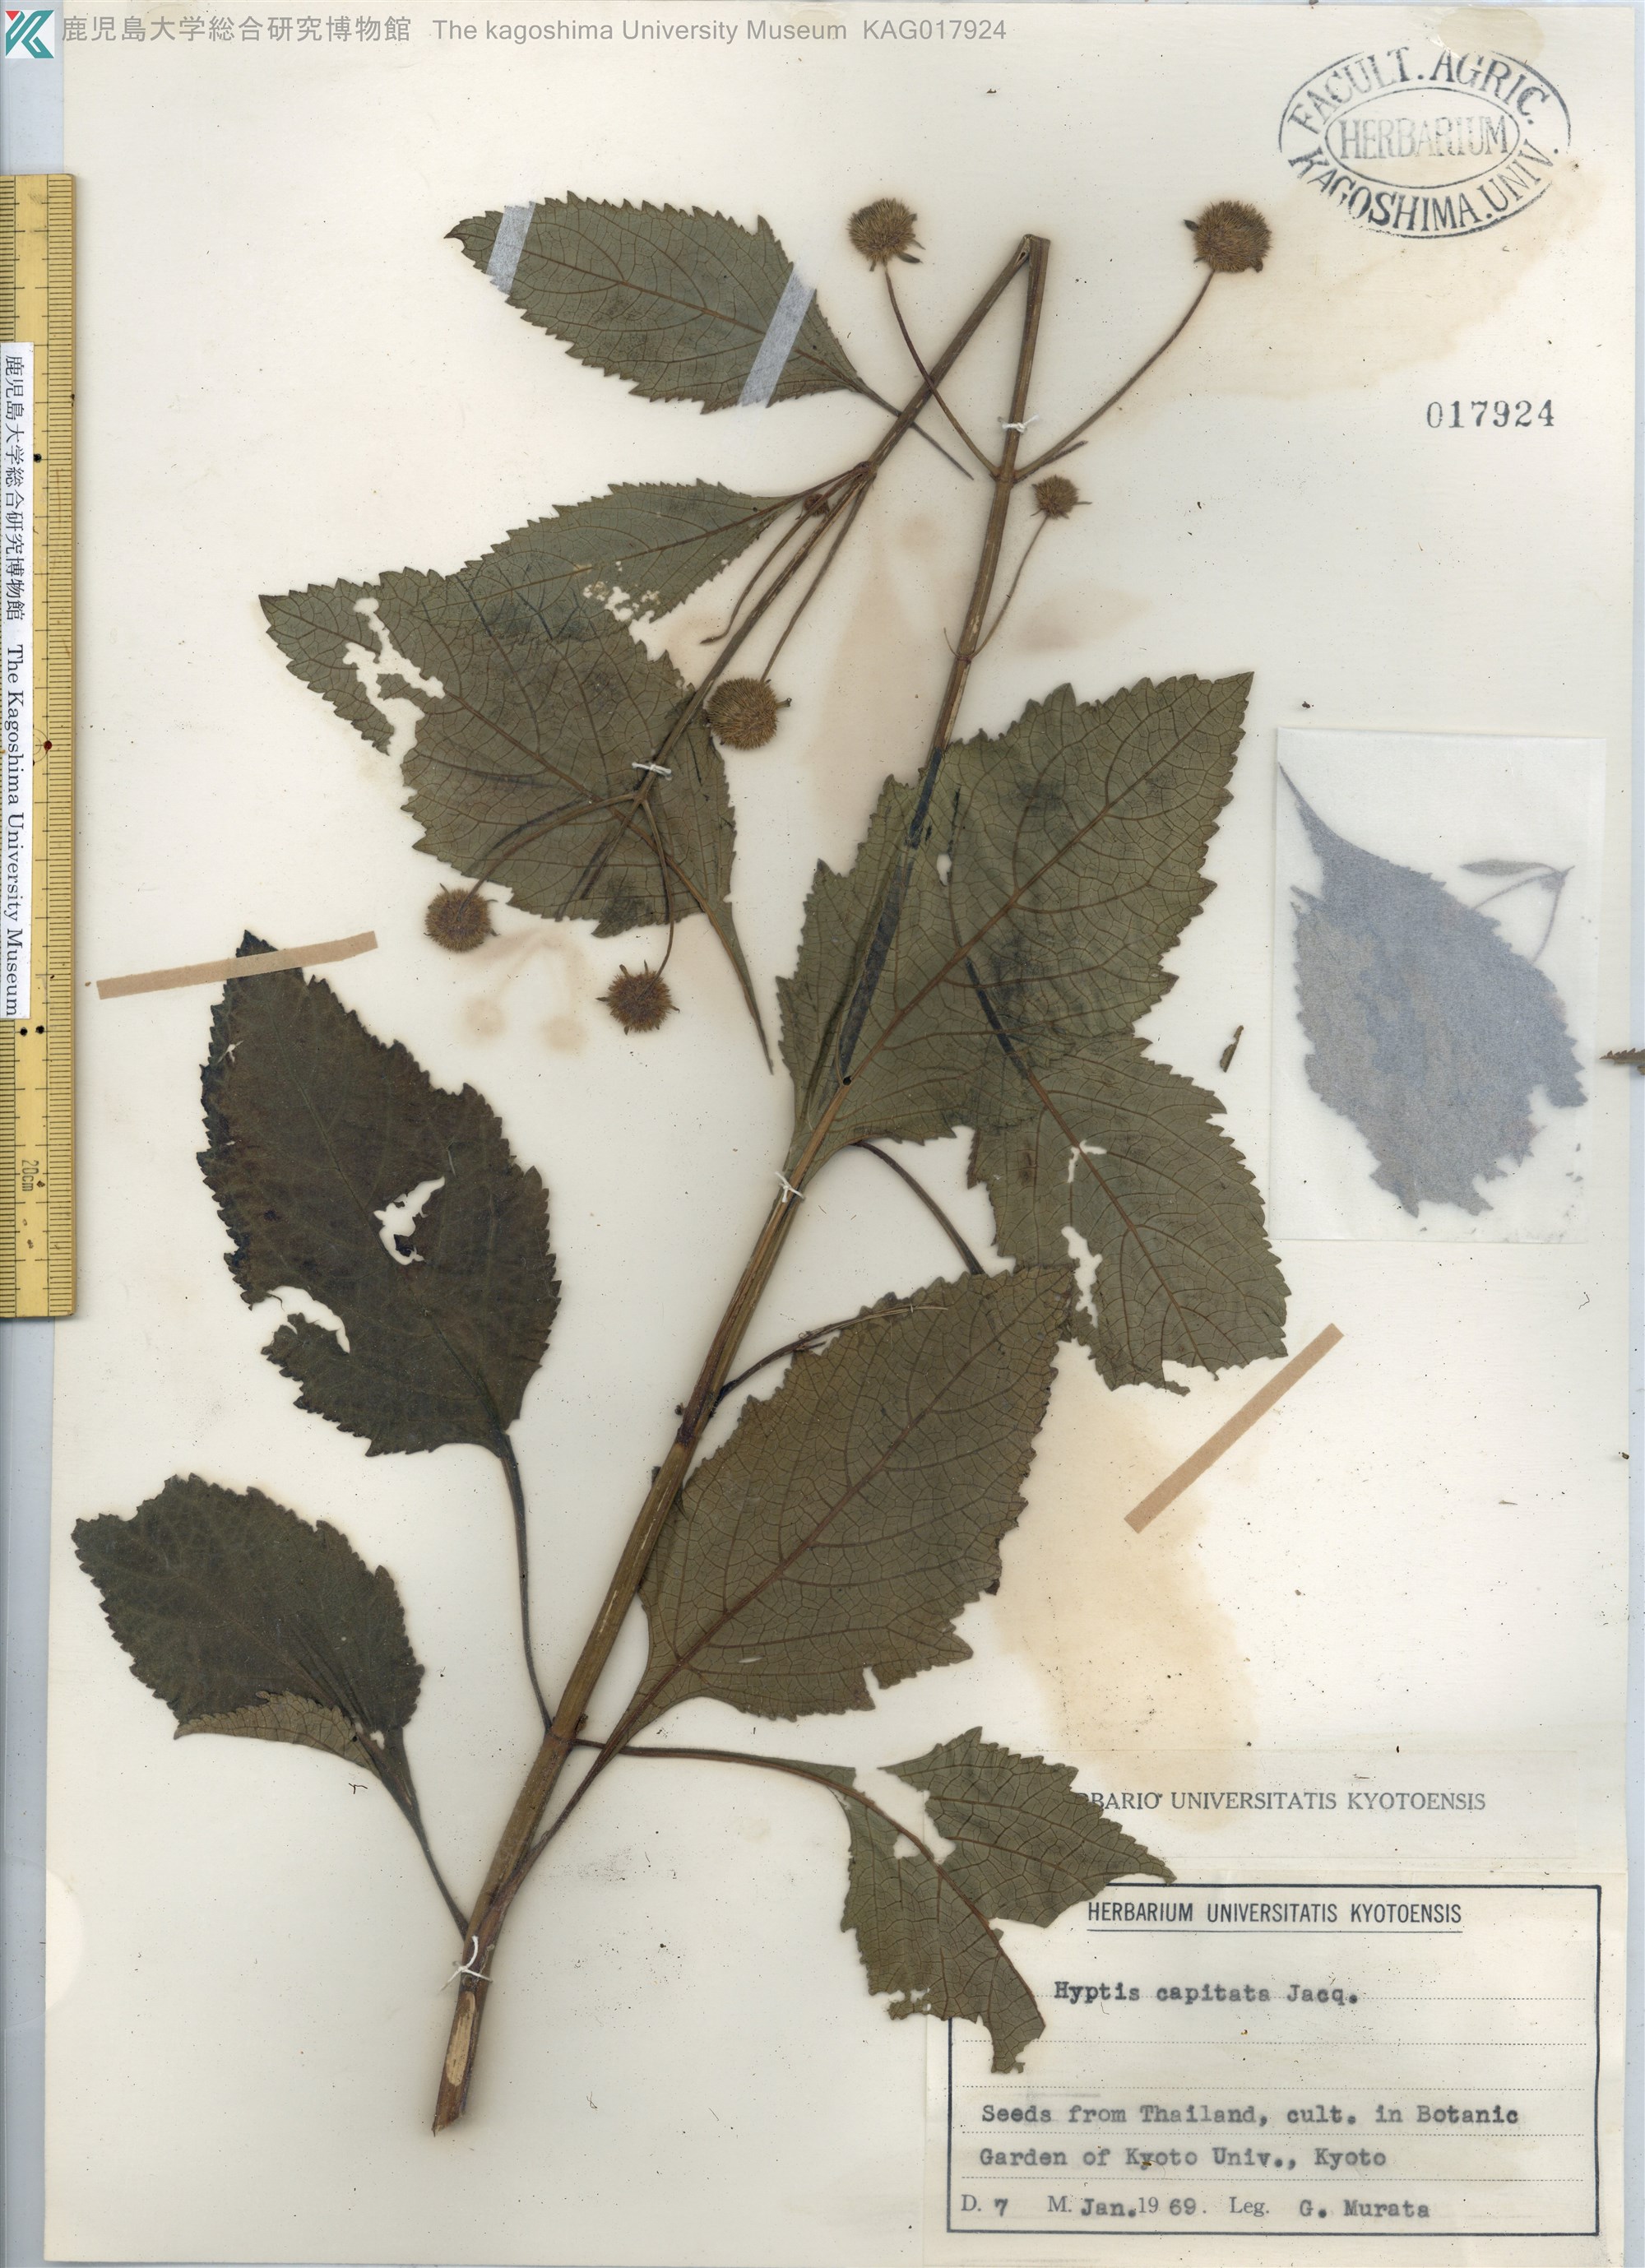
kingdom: Plantae
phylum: Tracheophyta
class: Magnoliopsida
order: Lamiales
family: Lamiaceae
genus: Hyptis
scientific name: Hyptis capitata
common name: False ironwort
